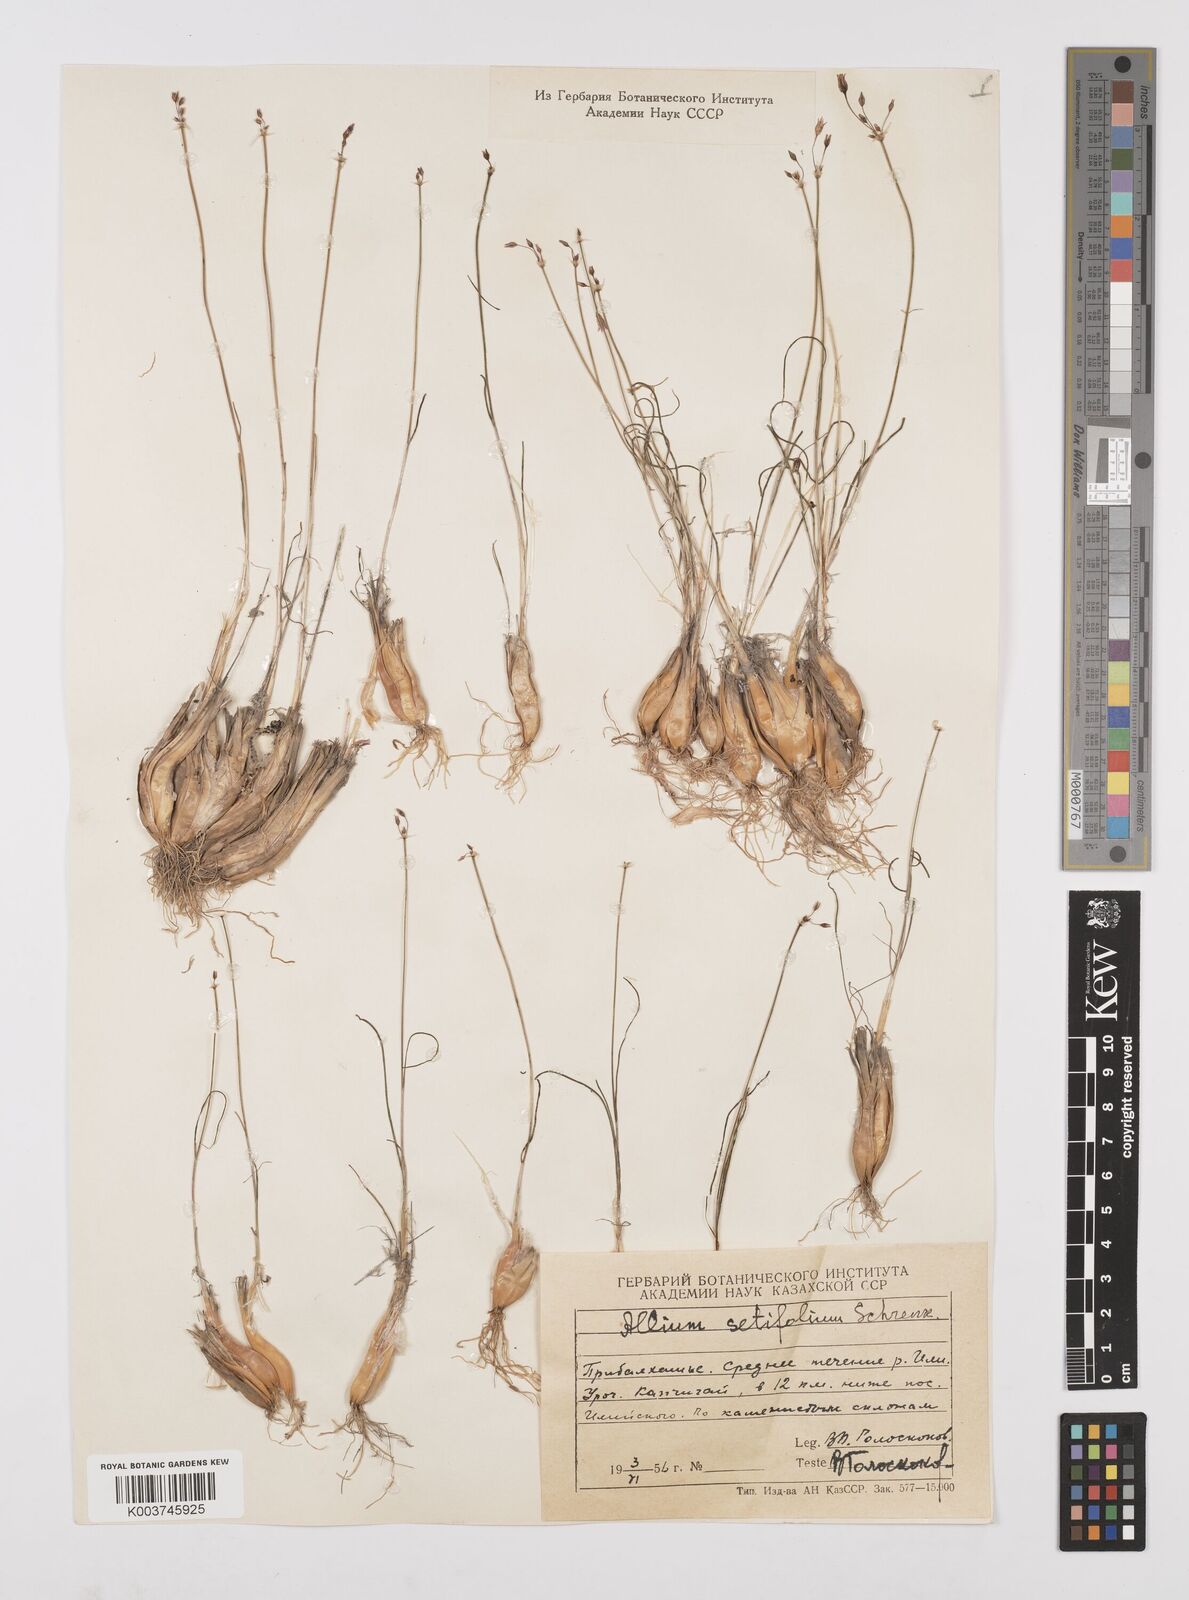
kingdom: Plantae
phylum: Tracheophyta
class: Liliopsida
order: Asparagales
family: Amaryllidaceae
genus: Allium
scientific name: Allium setifolium
